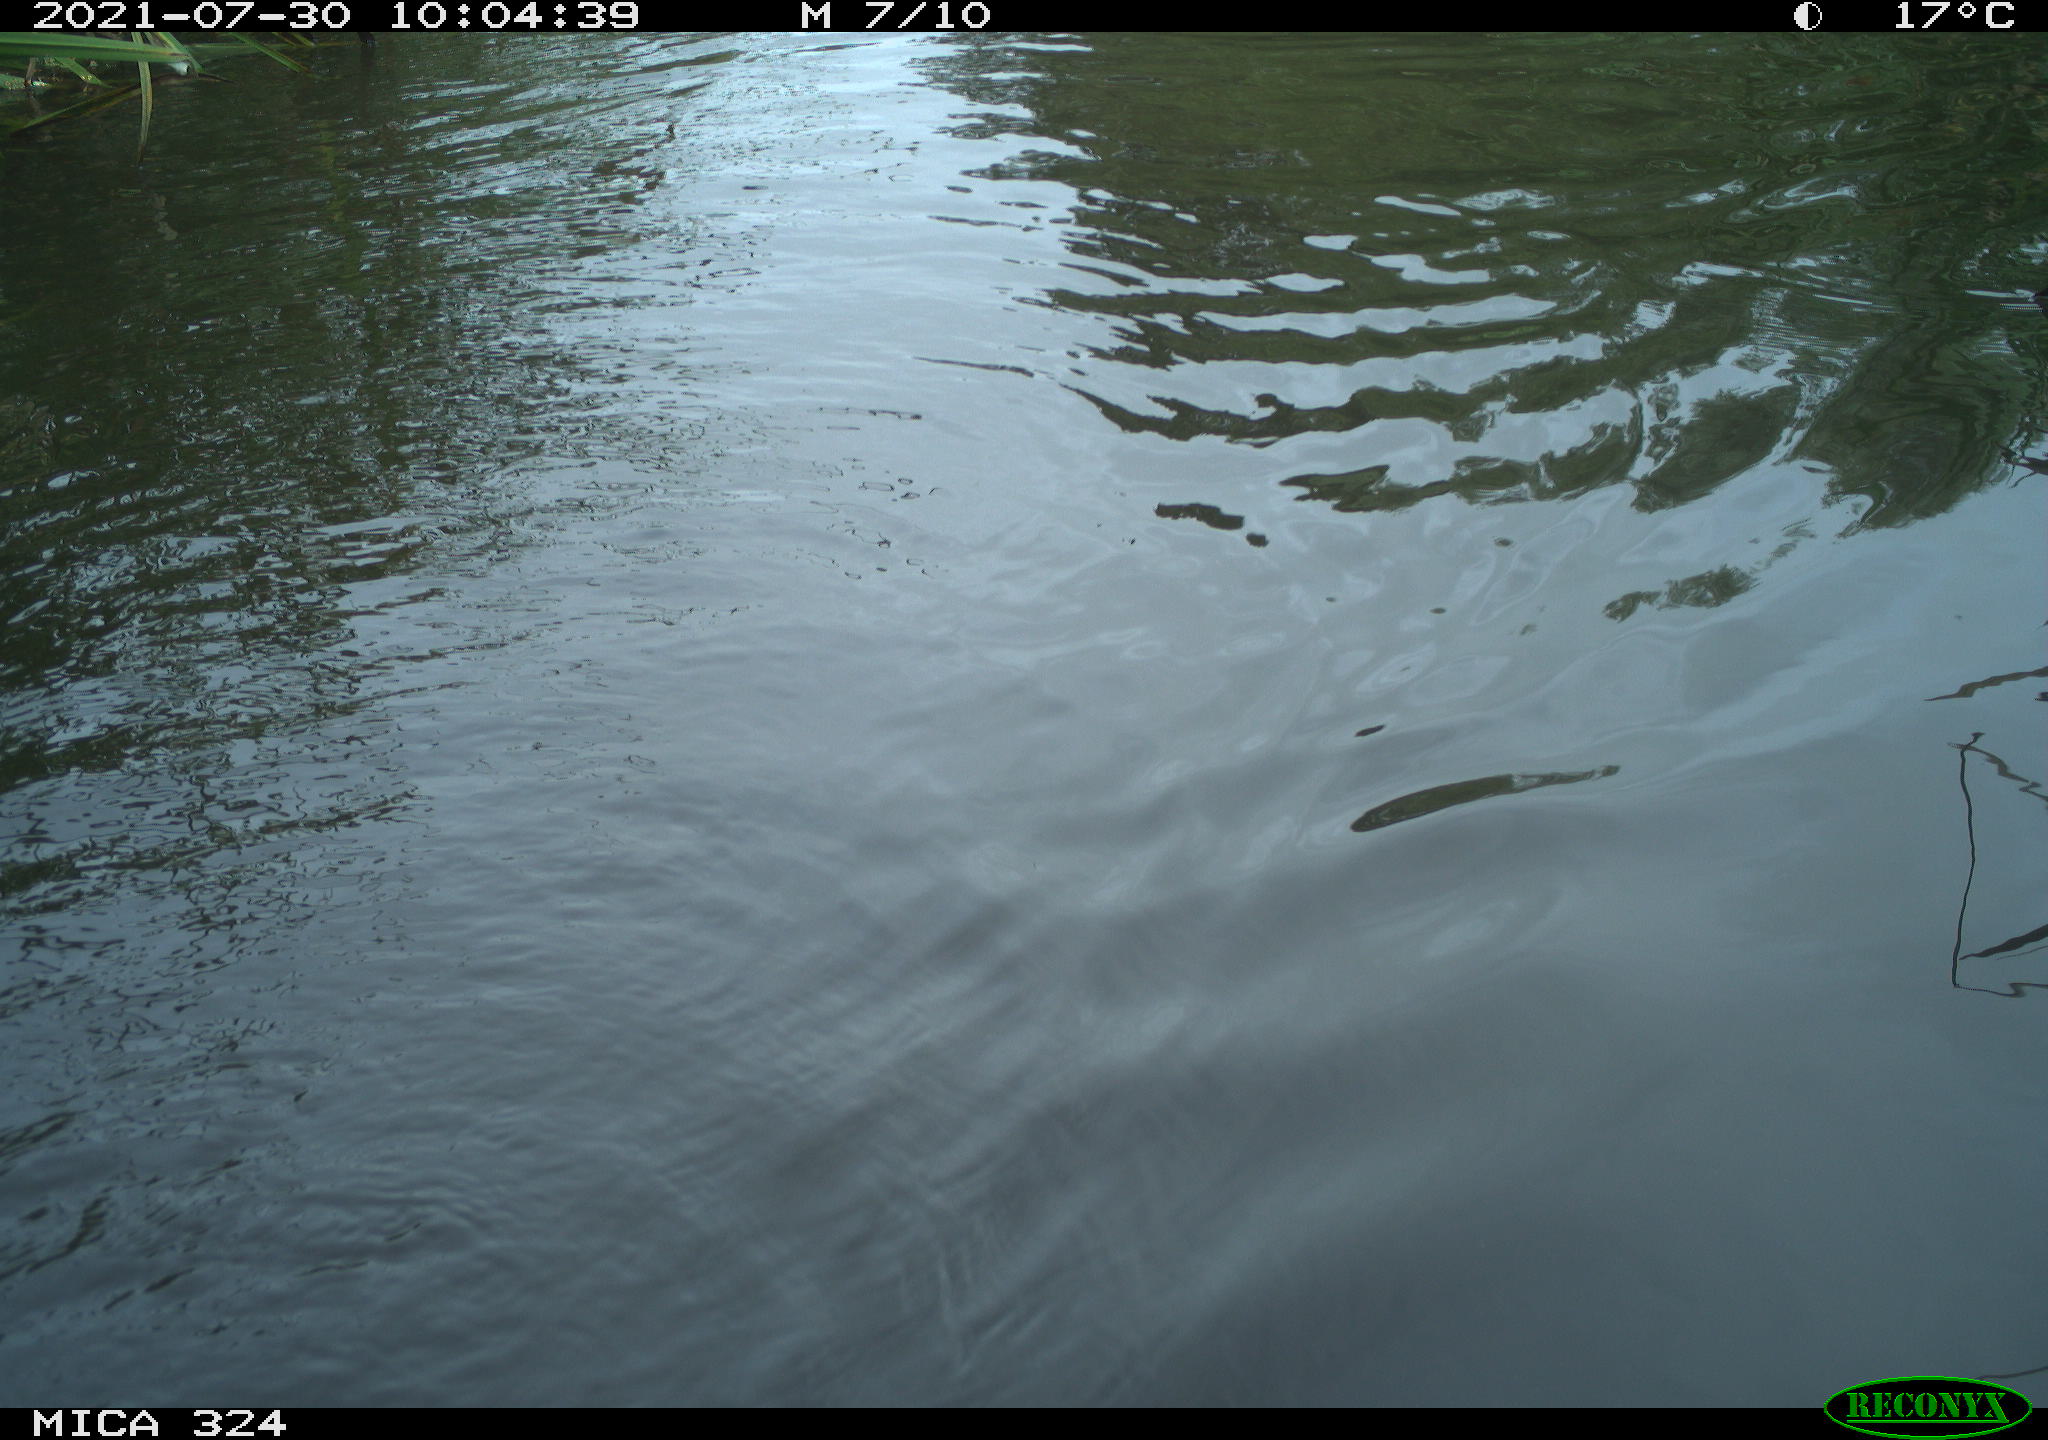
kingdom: Animalia
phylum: Chordata
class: Mammalia
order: Rodentia
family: Cricetidae
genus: Ondatra
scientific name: Ondatra zibethicus
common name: Muskrat
